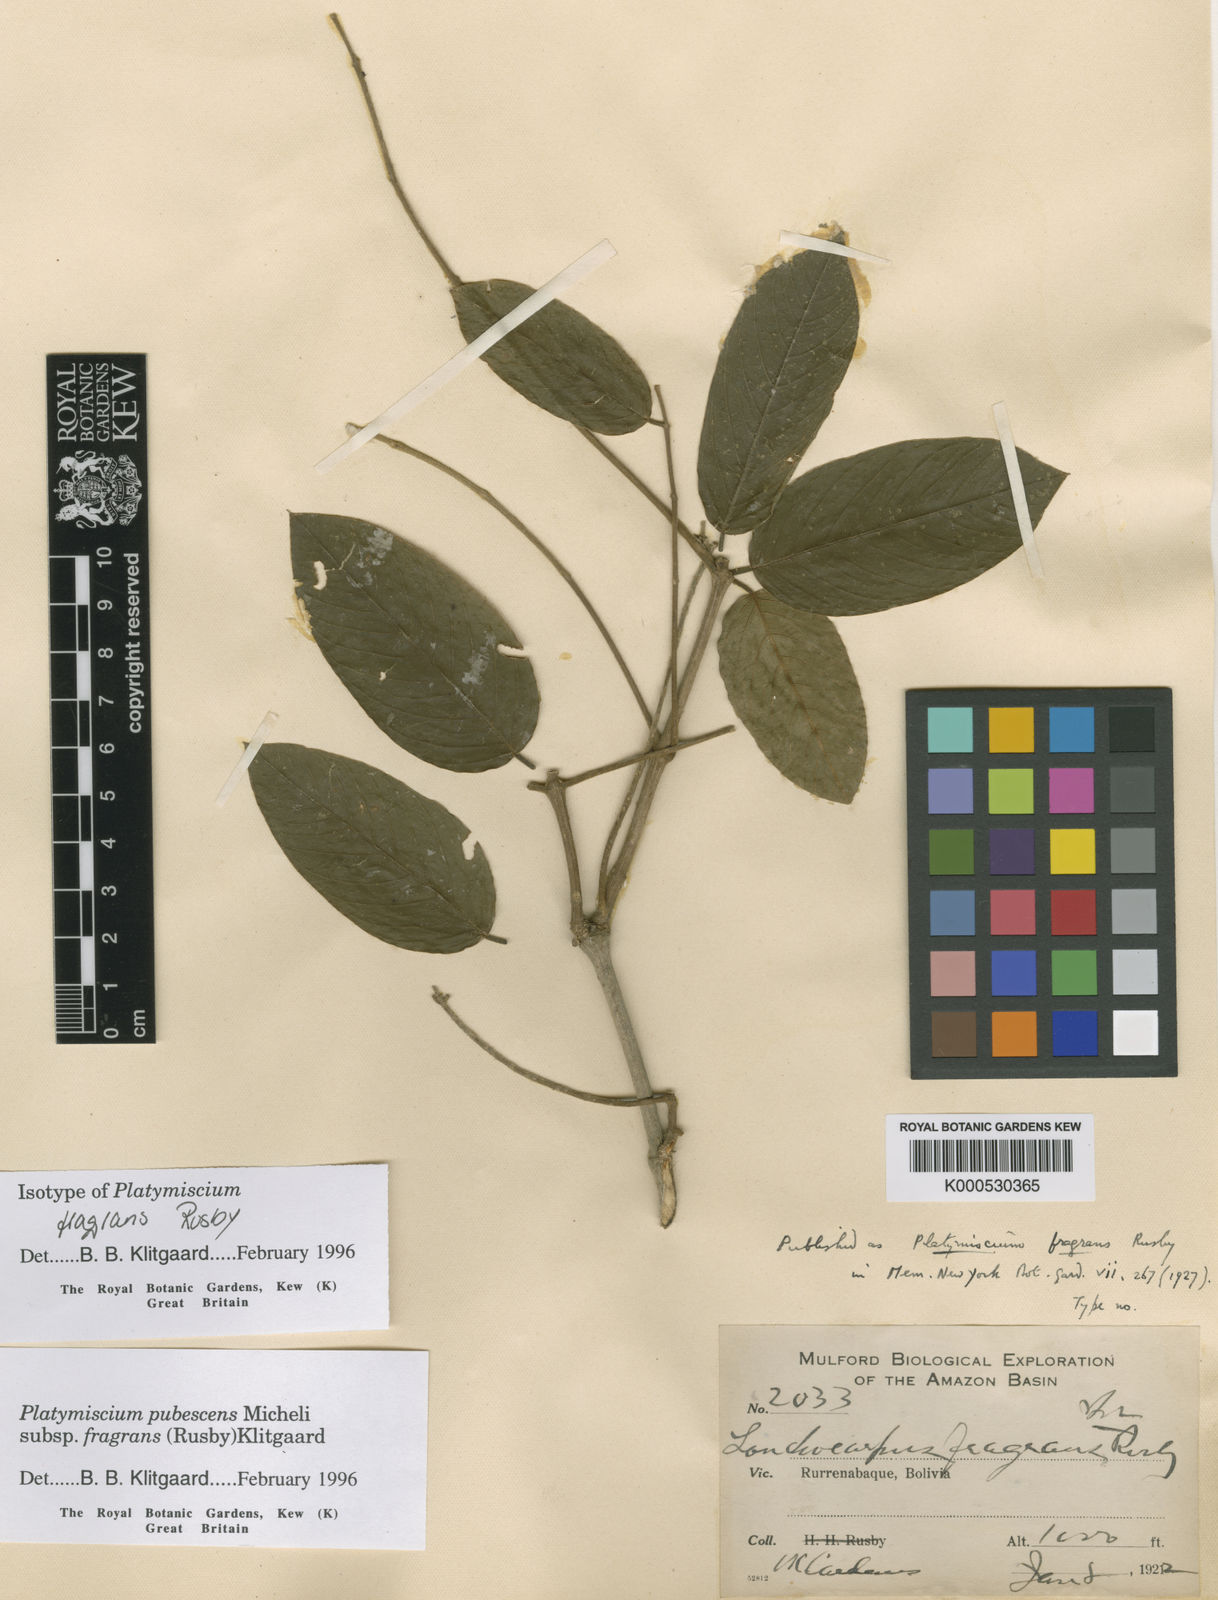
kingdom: Plantae
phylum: Tracheophyta
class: Magnoliopsida
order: Fabales
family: Fabaceae
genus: Platymiscium
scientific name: Platymiscium pubescens
